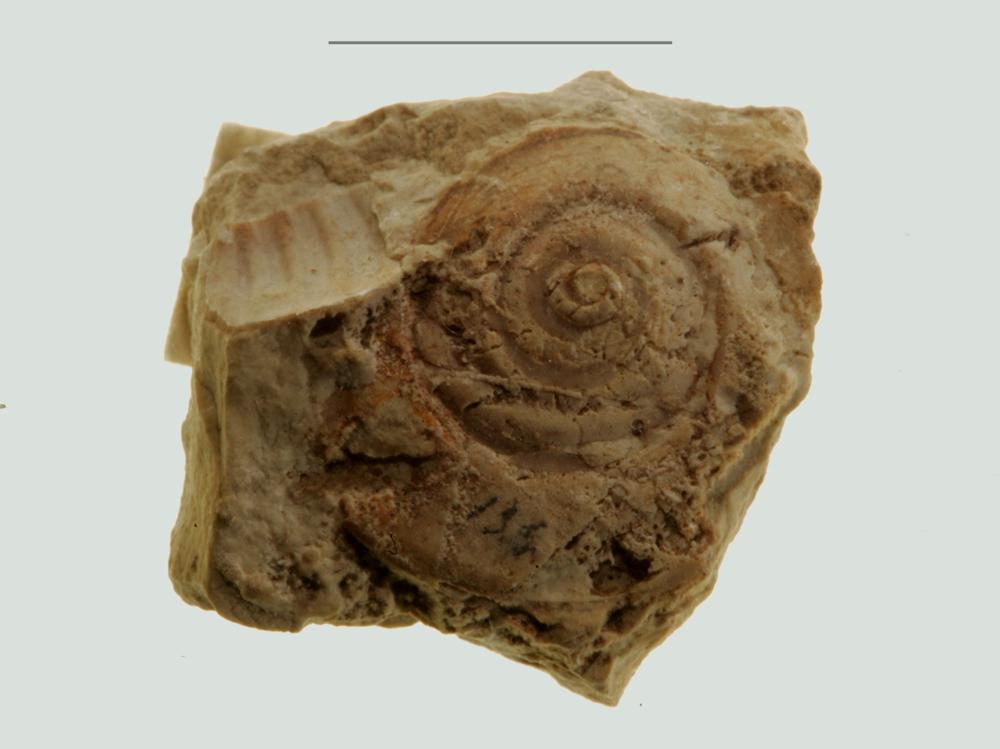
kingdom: Animalia
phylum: Mollusca
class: Gastropoda
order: Pleurotomariida
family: Gosseletinidae
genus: Latitaenia
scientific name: Latitaenia Pleurotomaria rotelloidea
